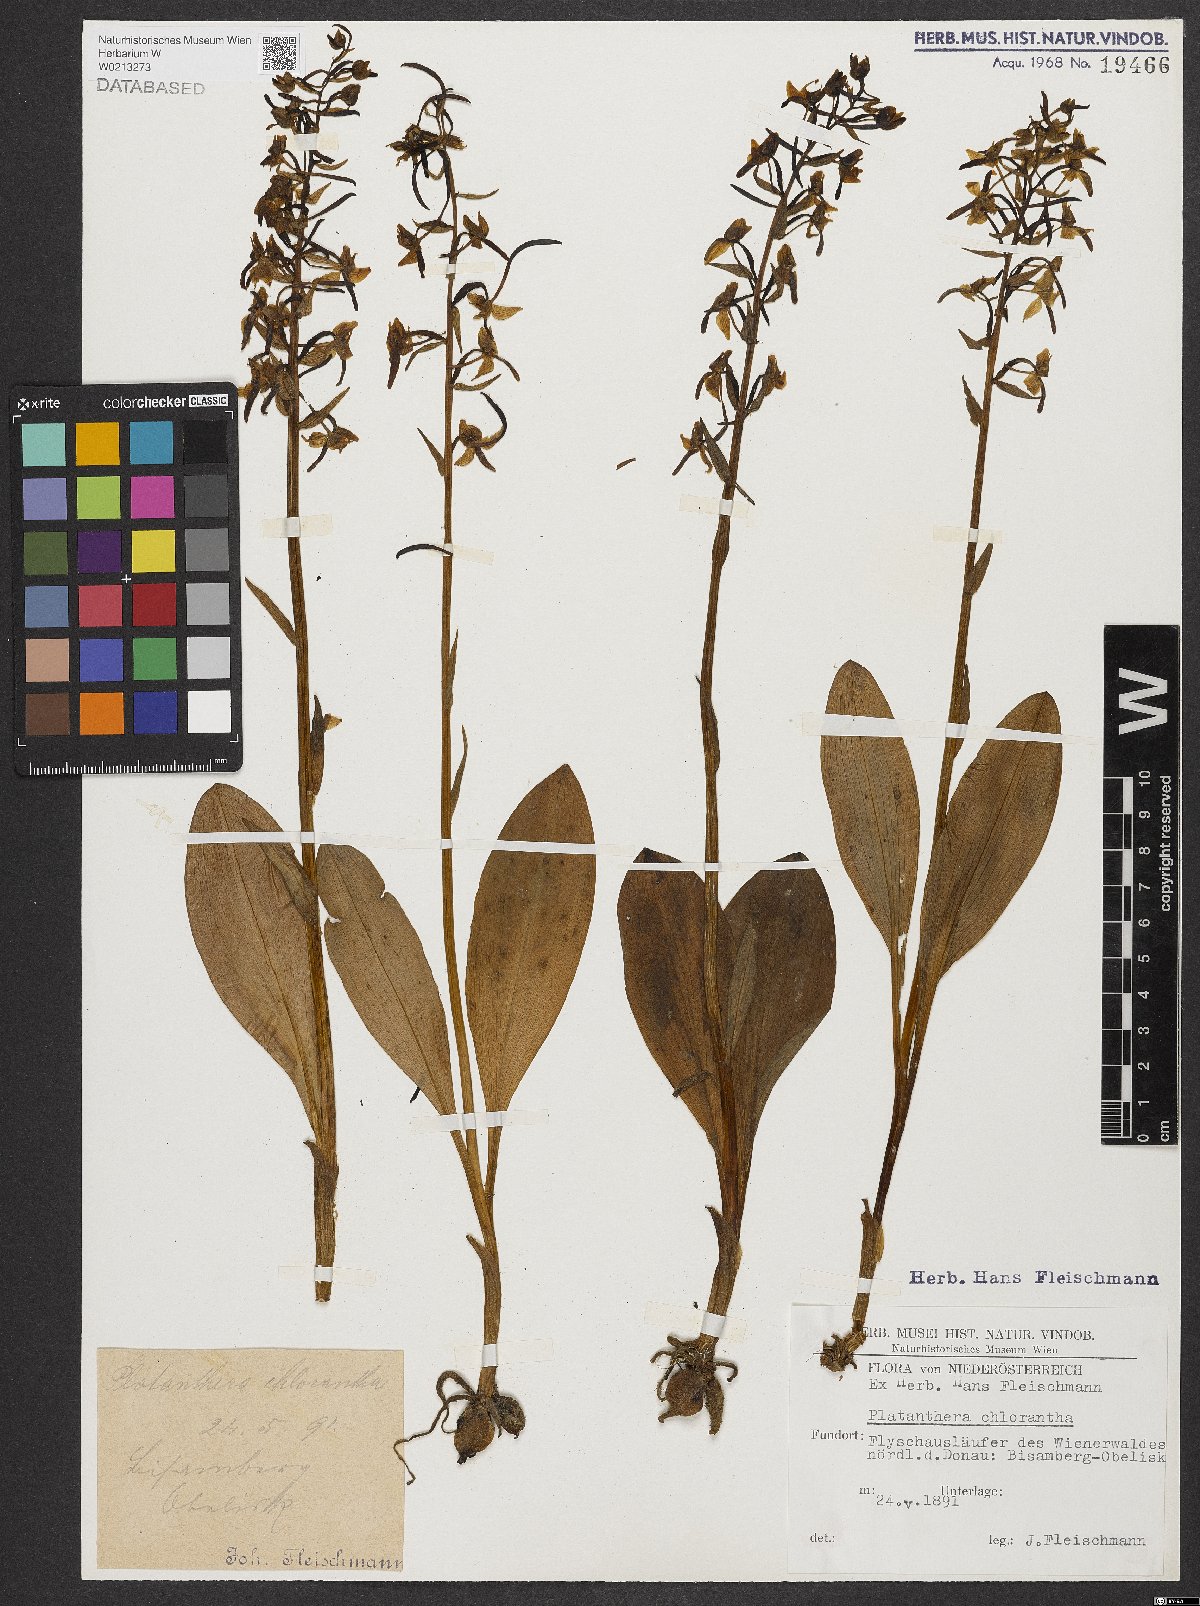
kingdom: Plantae
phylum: Tracheophyta
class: Liliopsida
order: Asparagales
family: Orchidaceae
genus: Platanthera
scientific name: Platanthera chlorantha
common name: Greater butterfly-orchid
